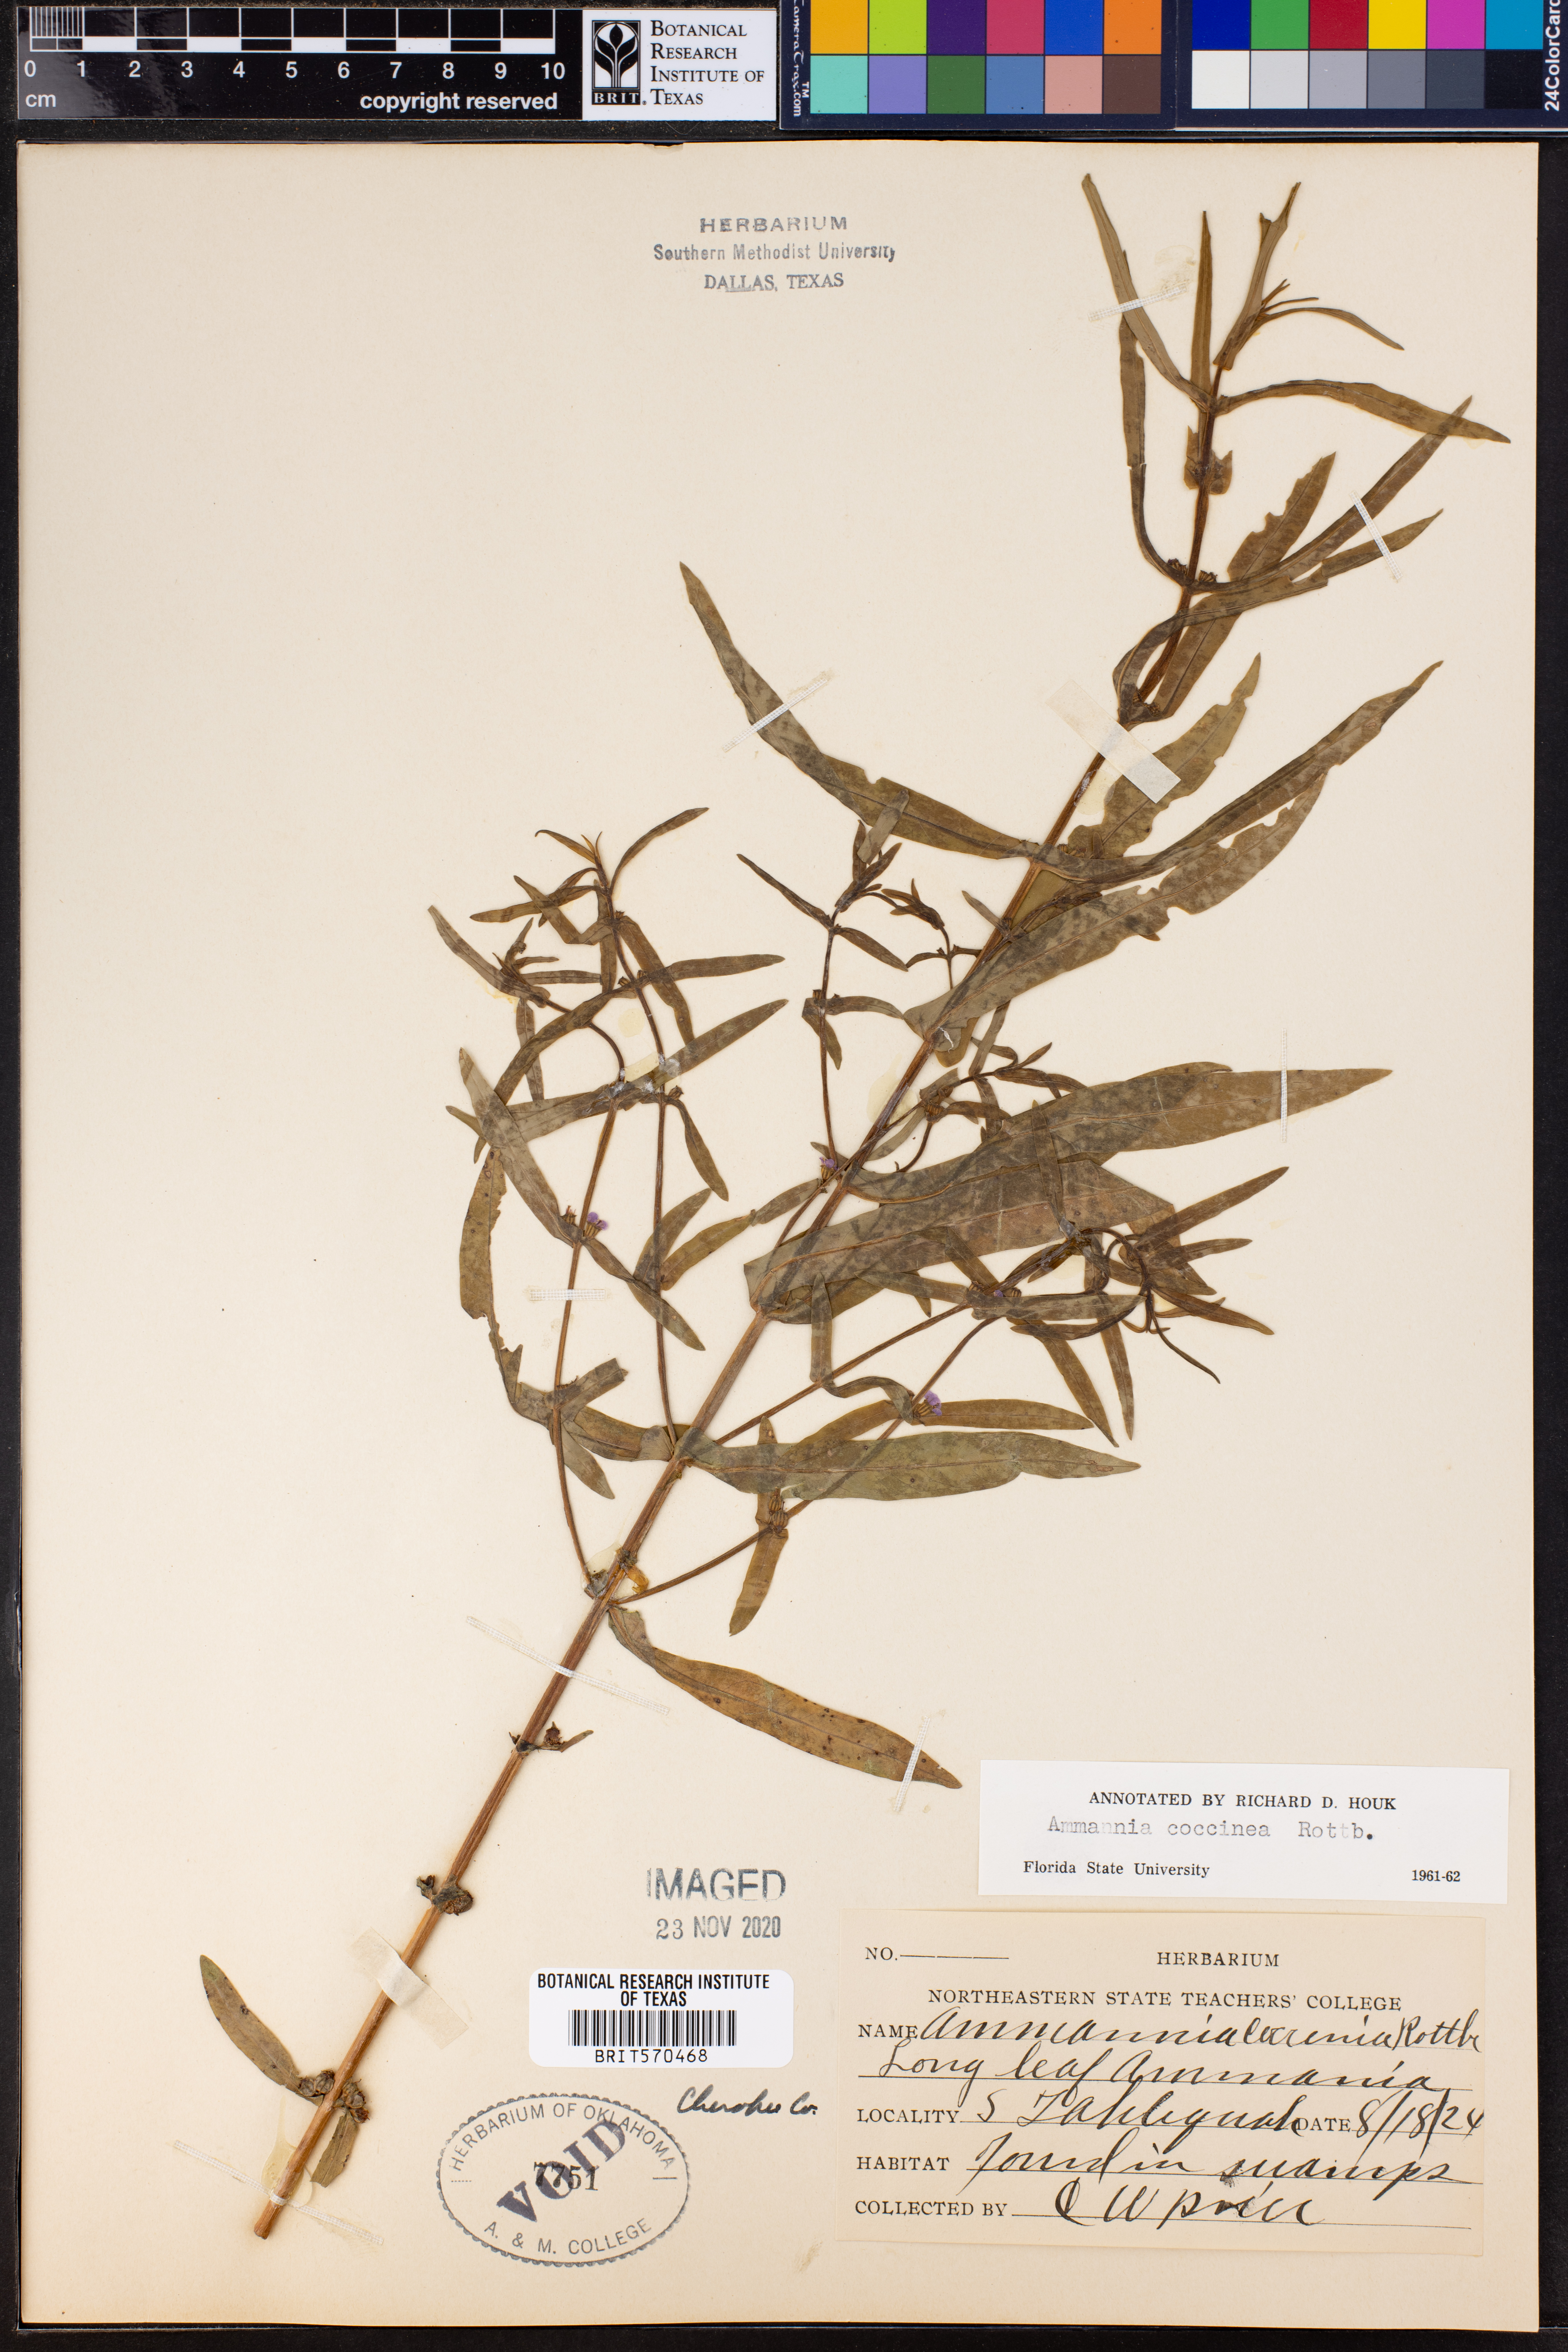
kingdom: Plantae
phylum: Tracheophyta
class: Magnoliopsida
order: Myrtales
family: Lythraceae
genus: Ammannia
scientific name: Ammannia coccinea
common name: Valley redstem
